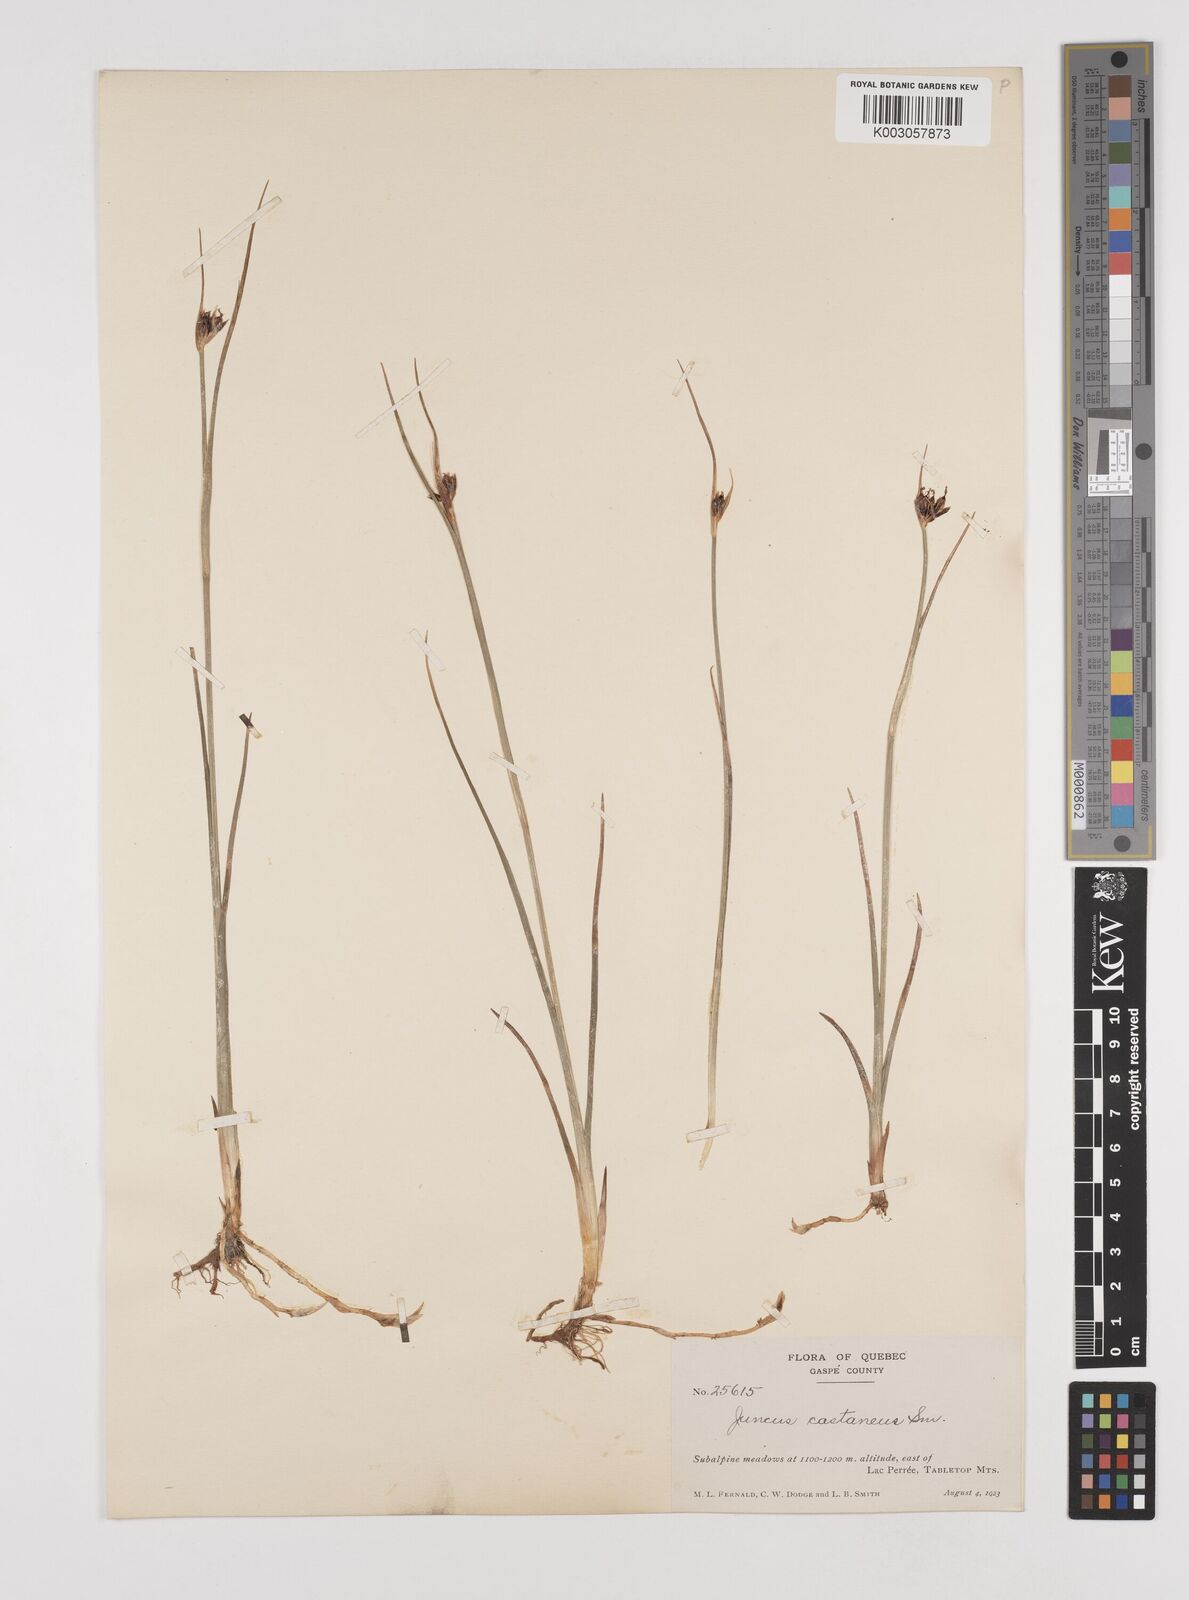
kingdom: Plantae
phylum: Tracheophyta
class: Liliopsida
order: Poales
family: Juncaceae
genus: Juncus
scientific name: Juncus castaneus
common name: Chestnut rush
